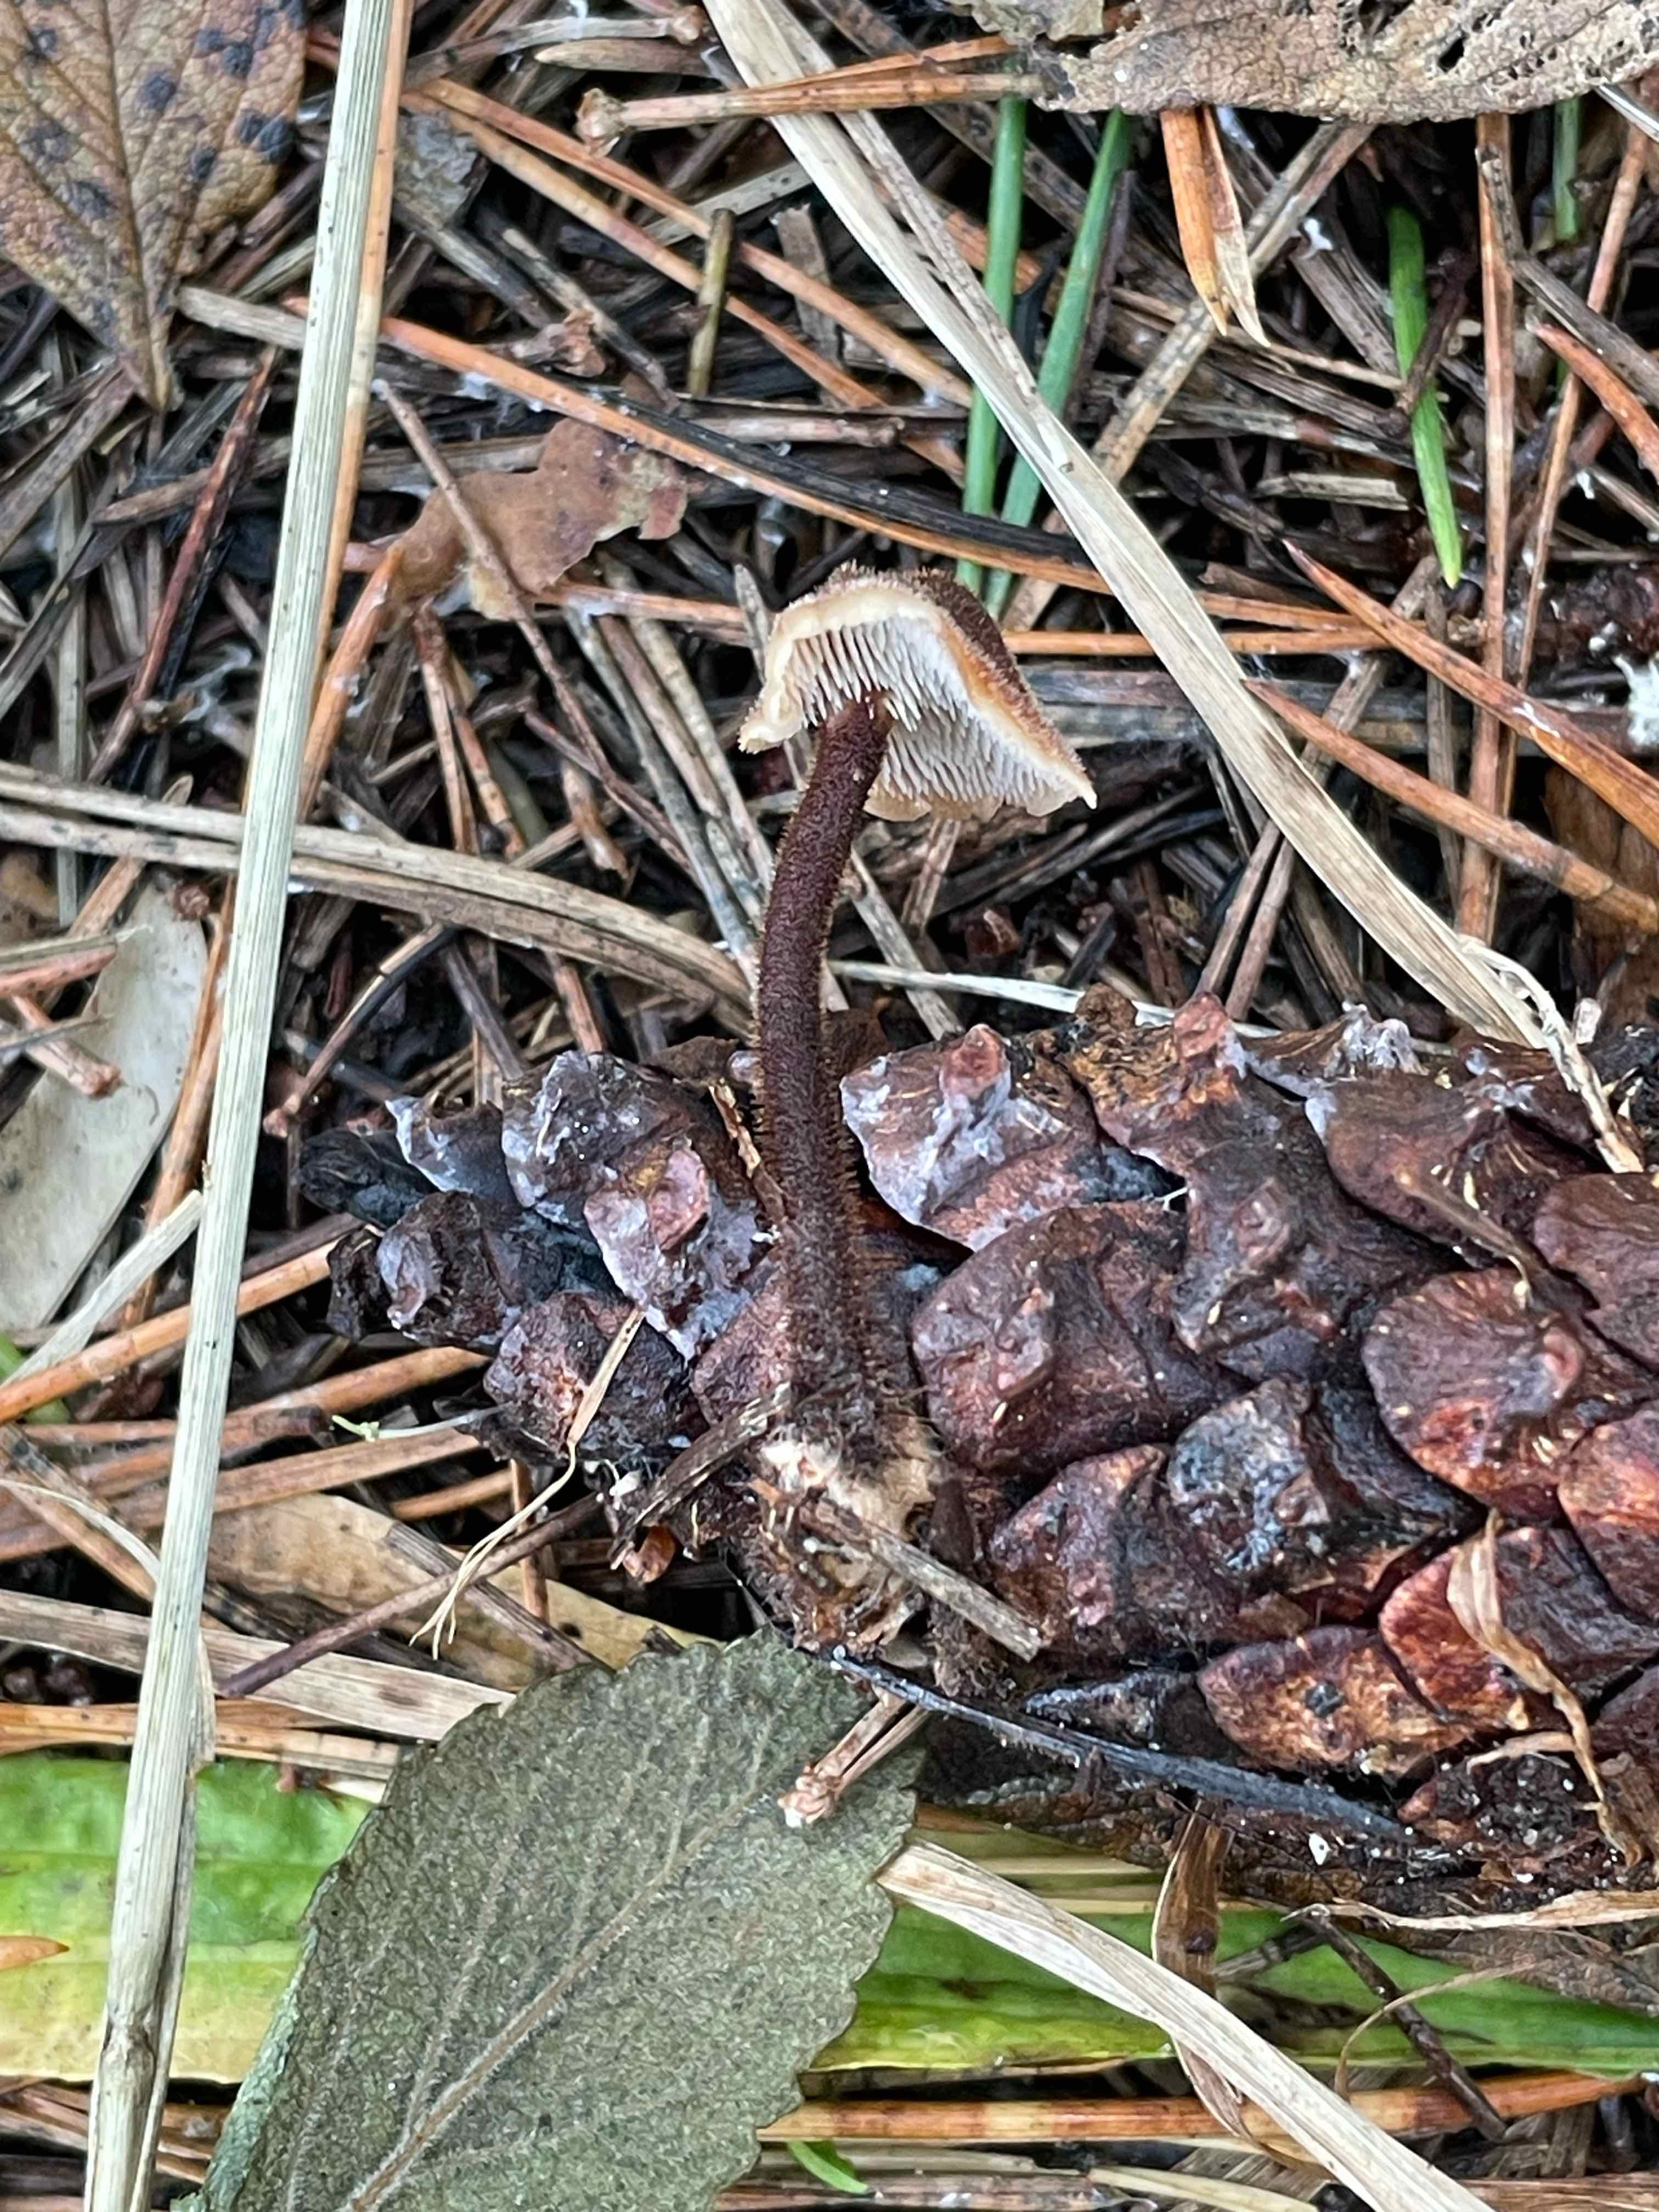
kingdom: Fungi
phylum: Basidiomycota
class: Agaricomycetes
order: Russulales
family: Auriscalpiaceae
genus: Auriscalpium
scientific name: Auriscalpium vulgare
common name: koglepigsvamp
